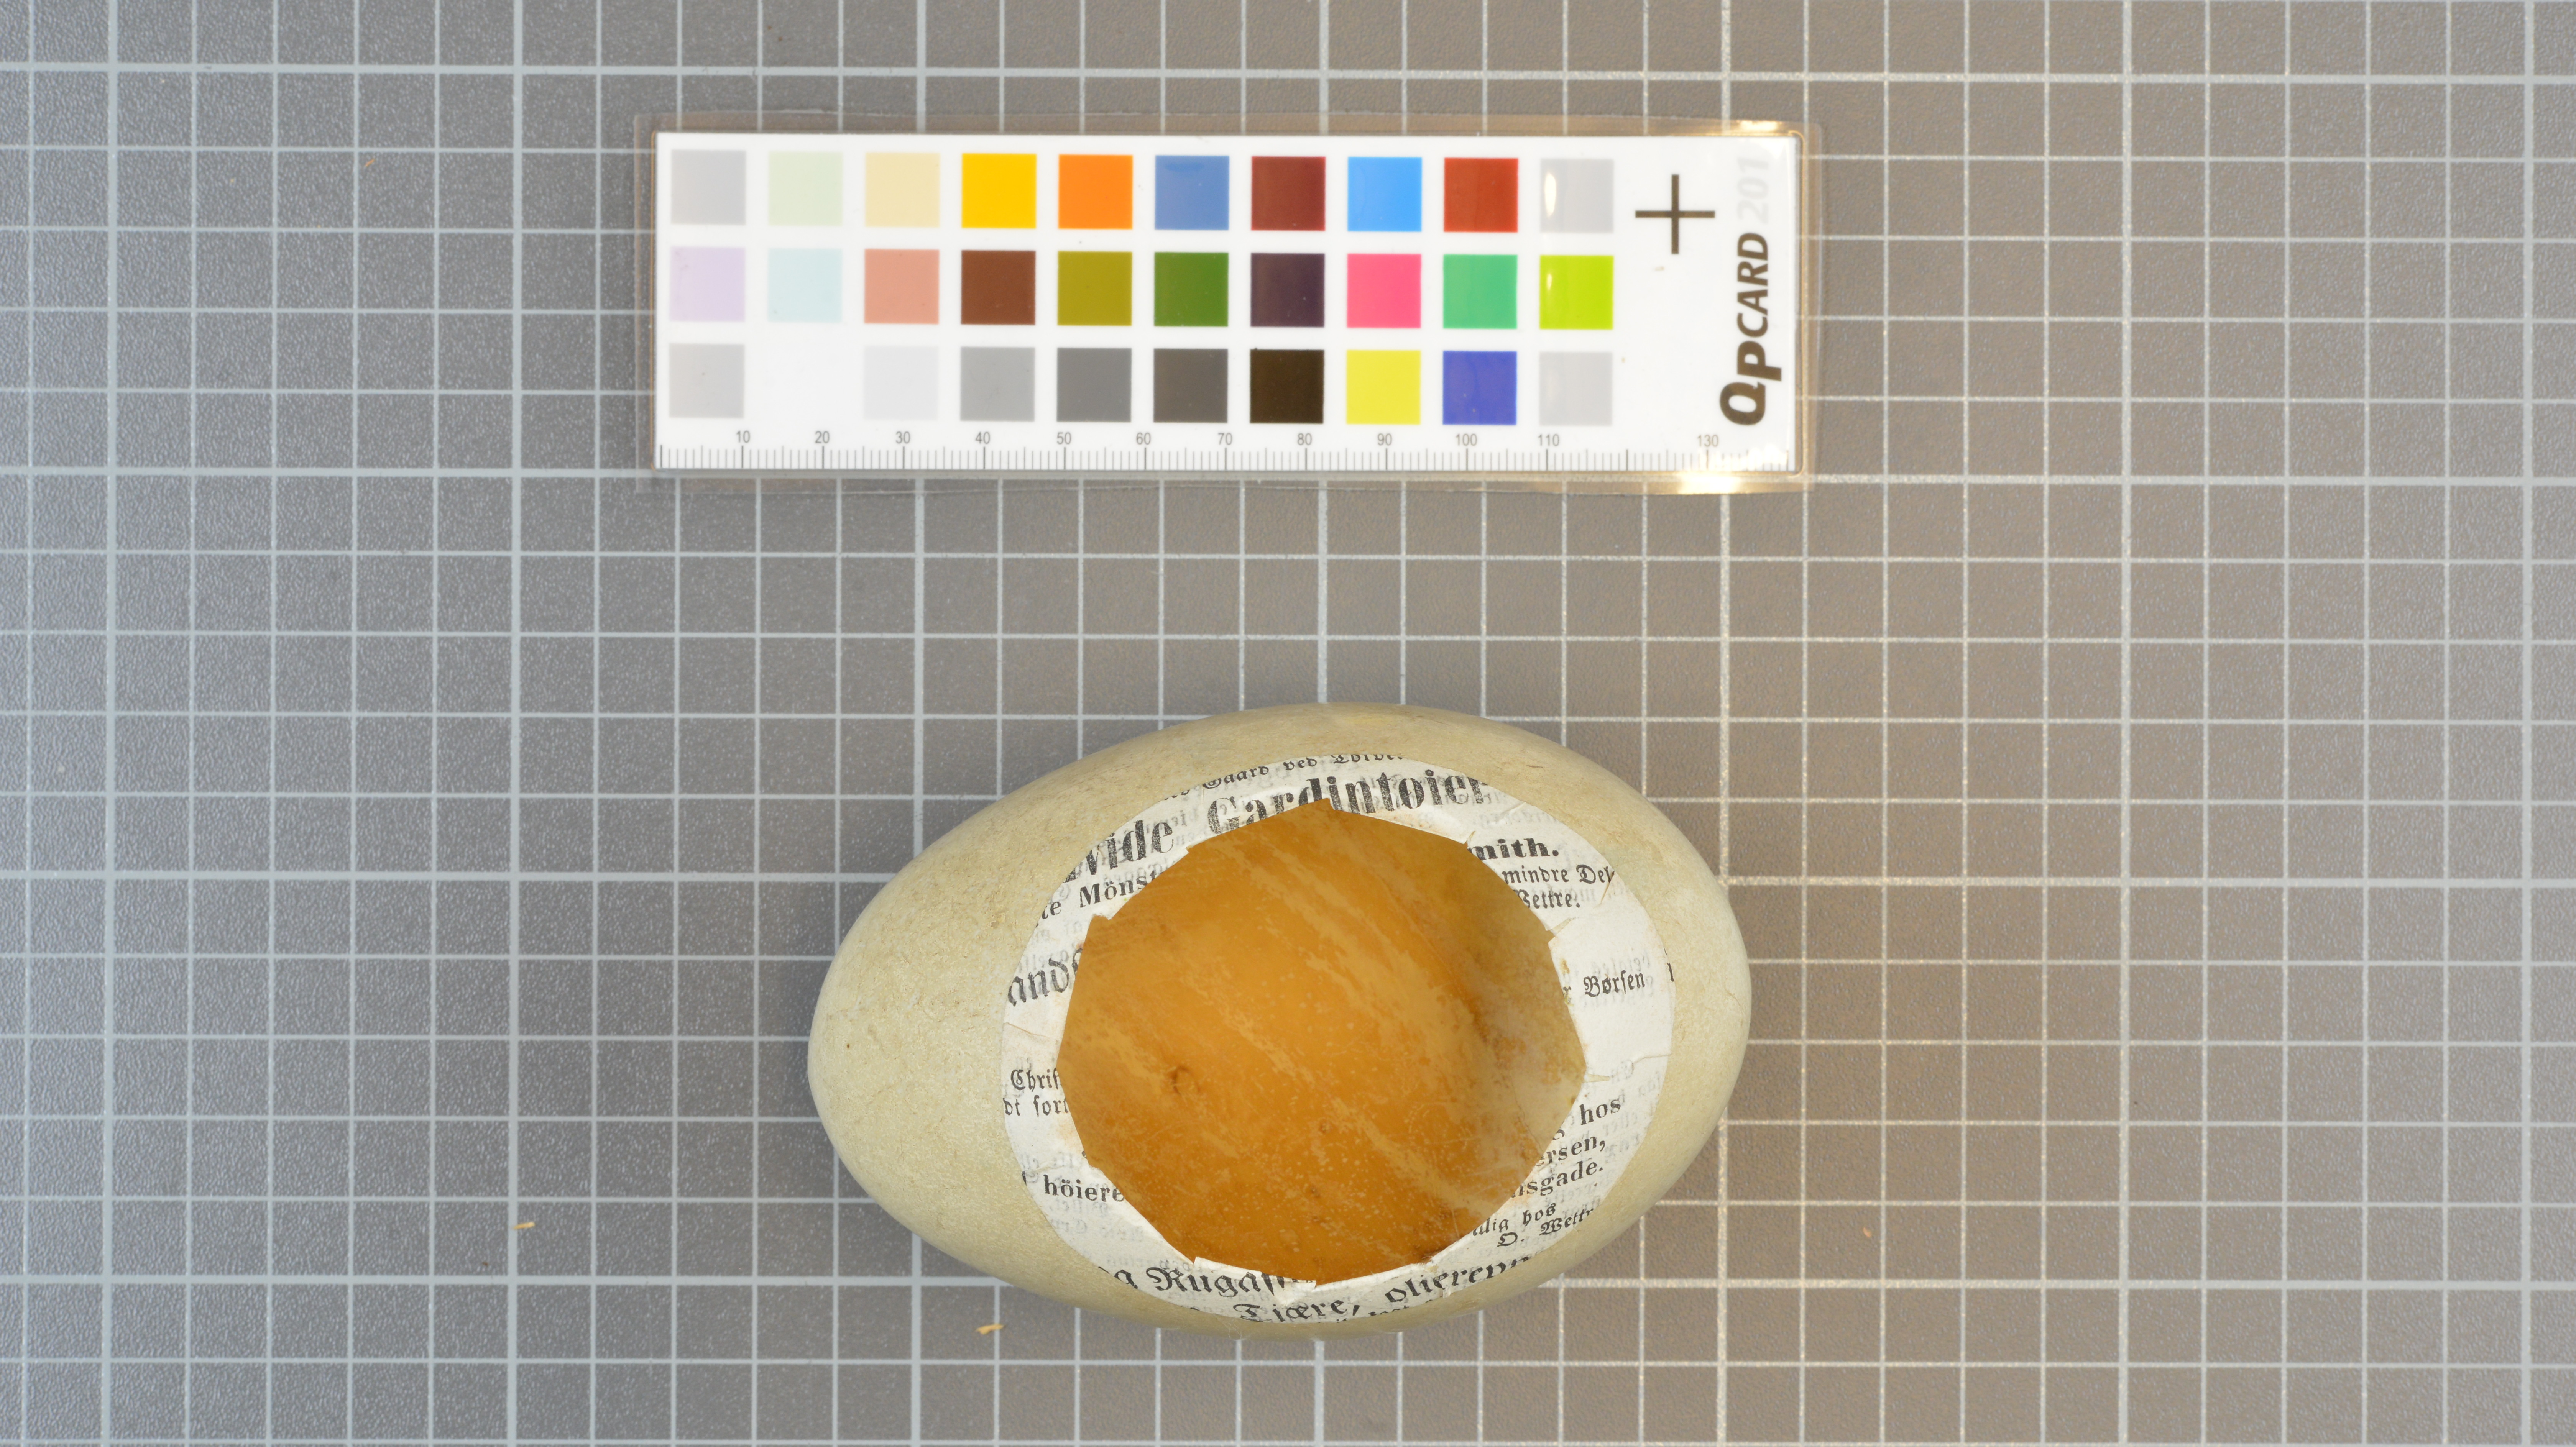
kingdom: Animalia
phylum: Chordata
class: Aves
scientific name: Aves
